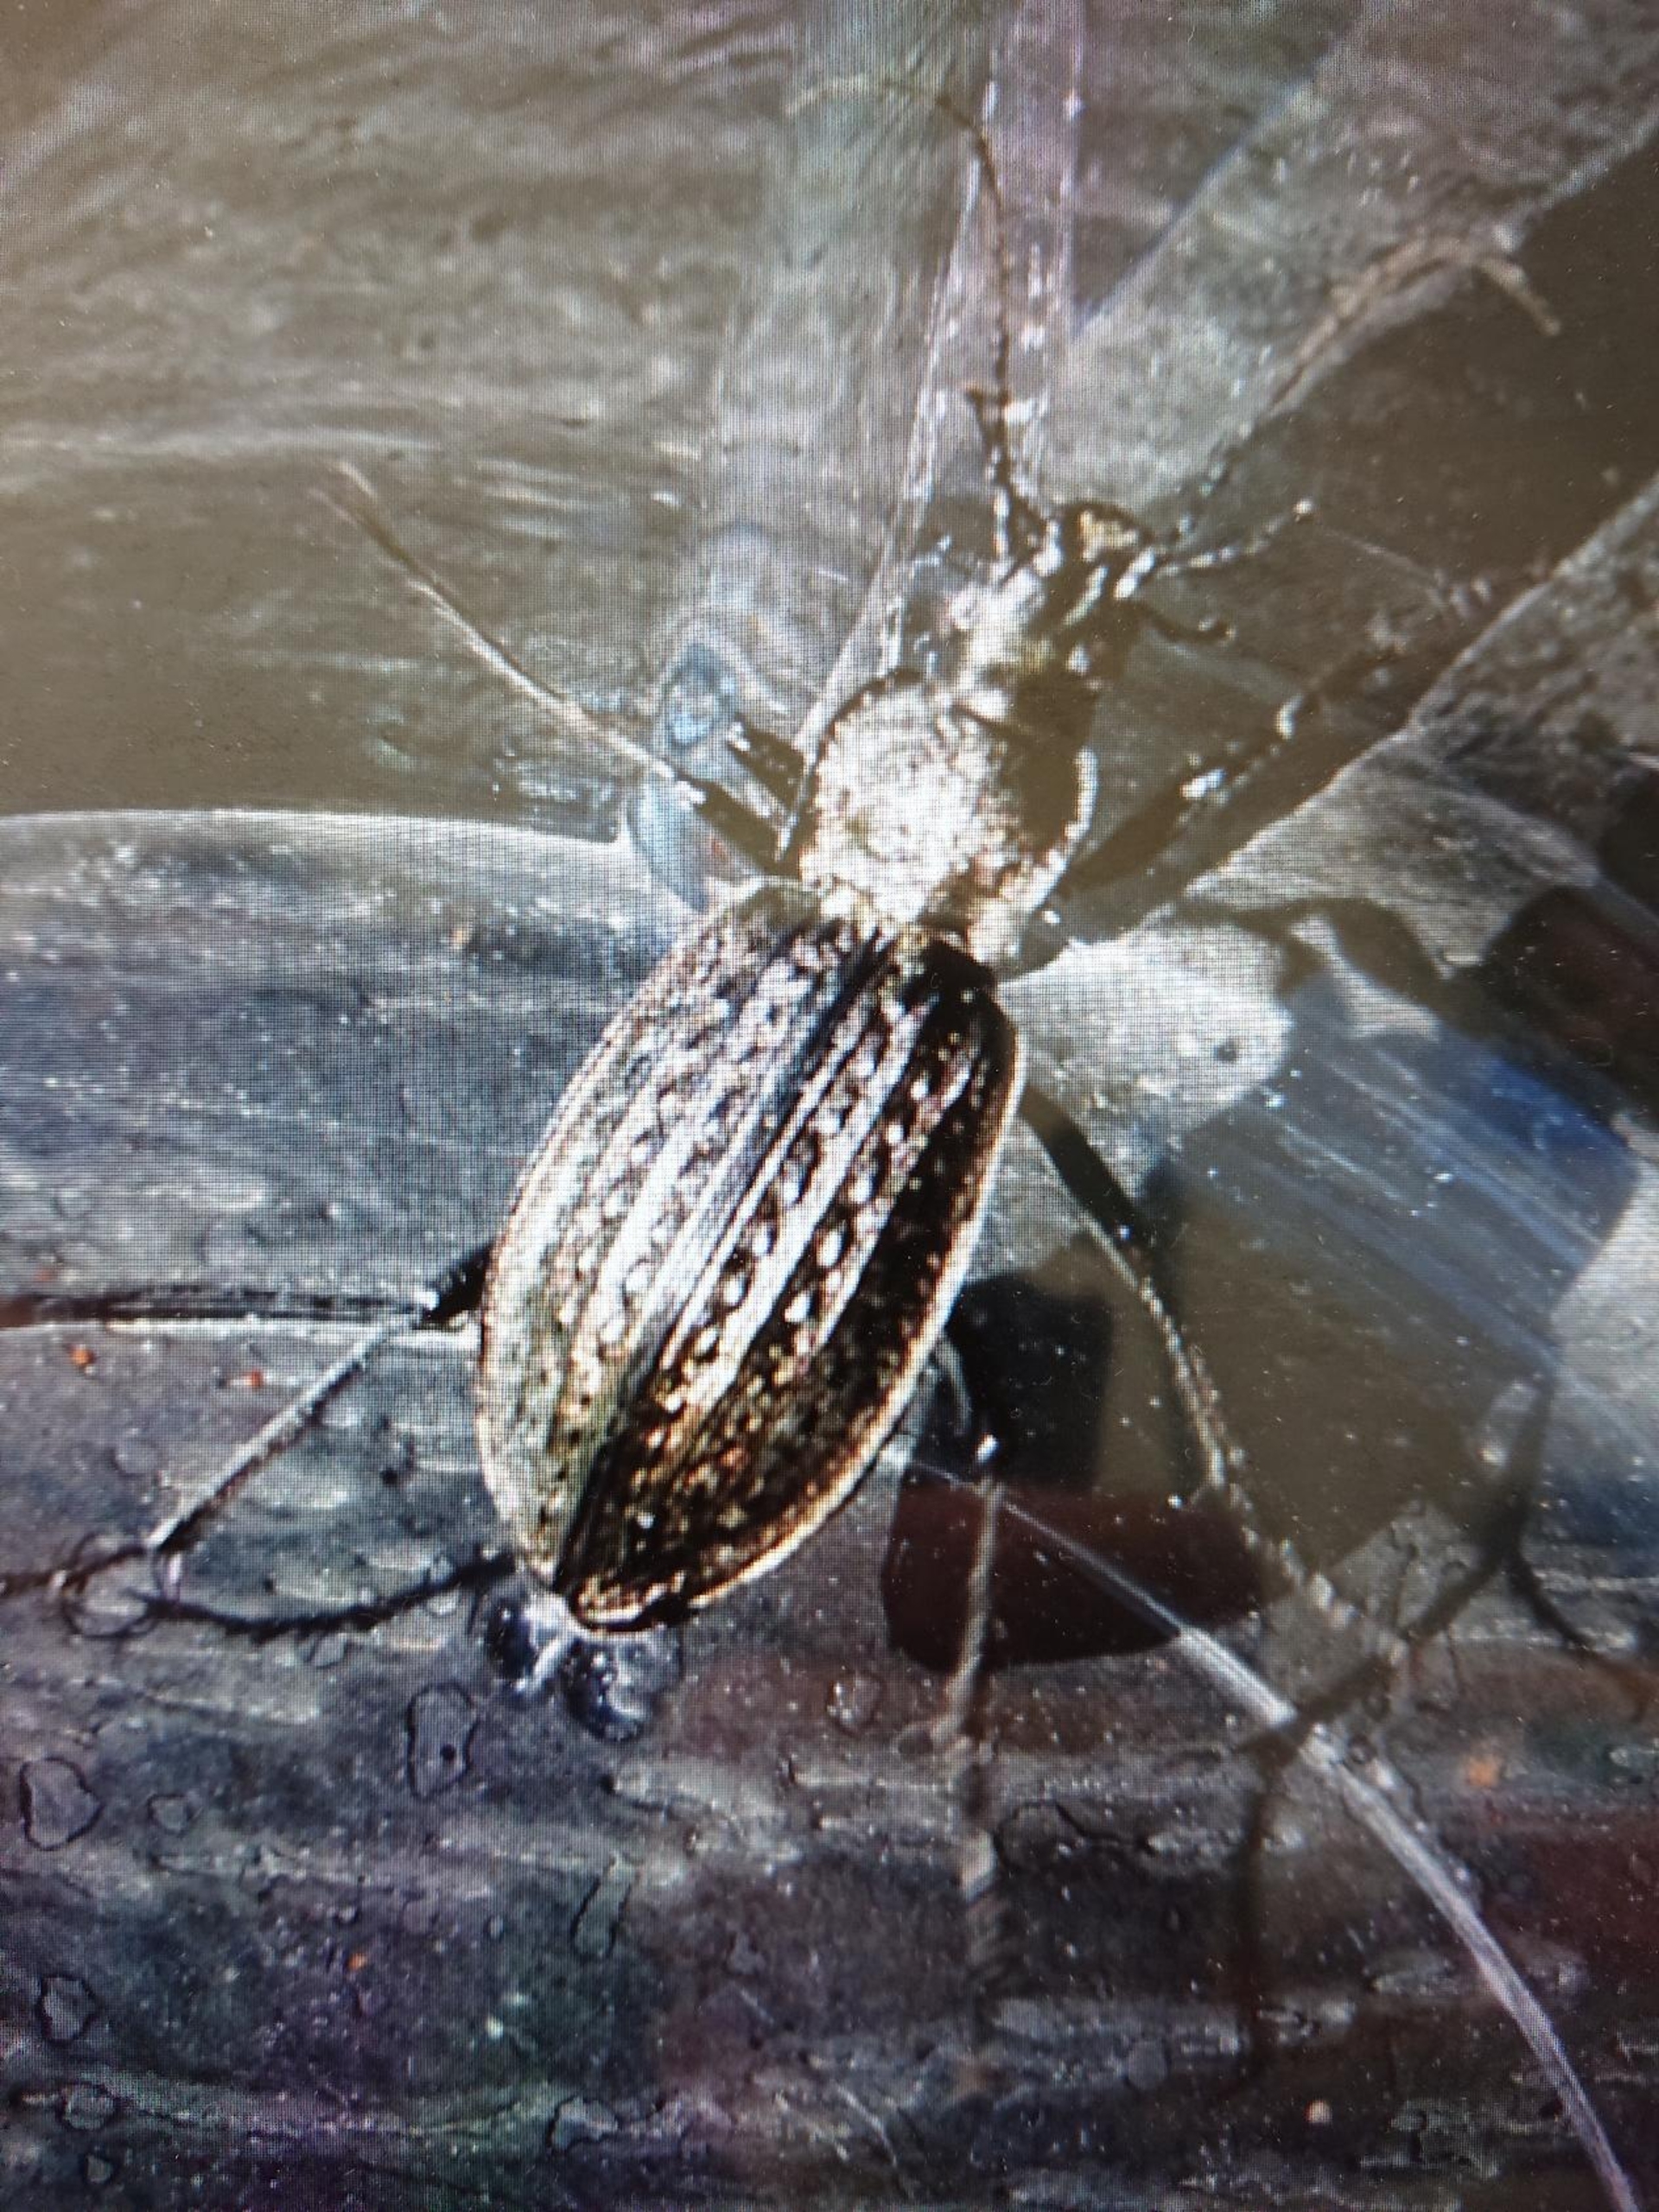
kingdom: Animalia
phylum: Arthropoda
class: Insecta
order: Coleoptera
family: Carabidae
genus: Carabus
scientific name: Carabus granulatus
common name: Kornet løber
